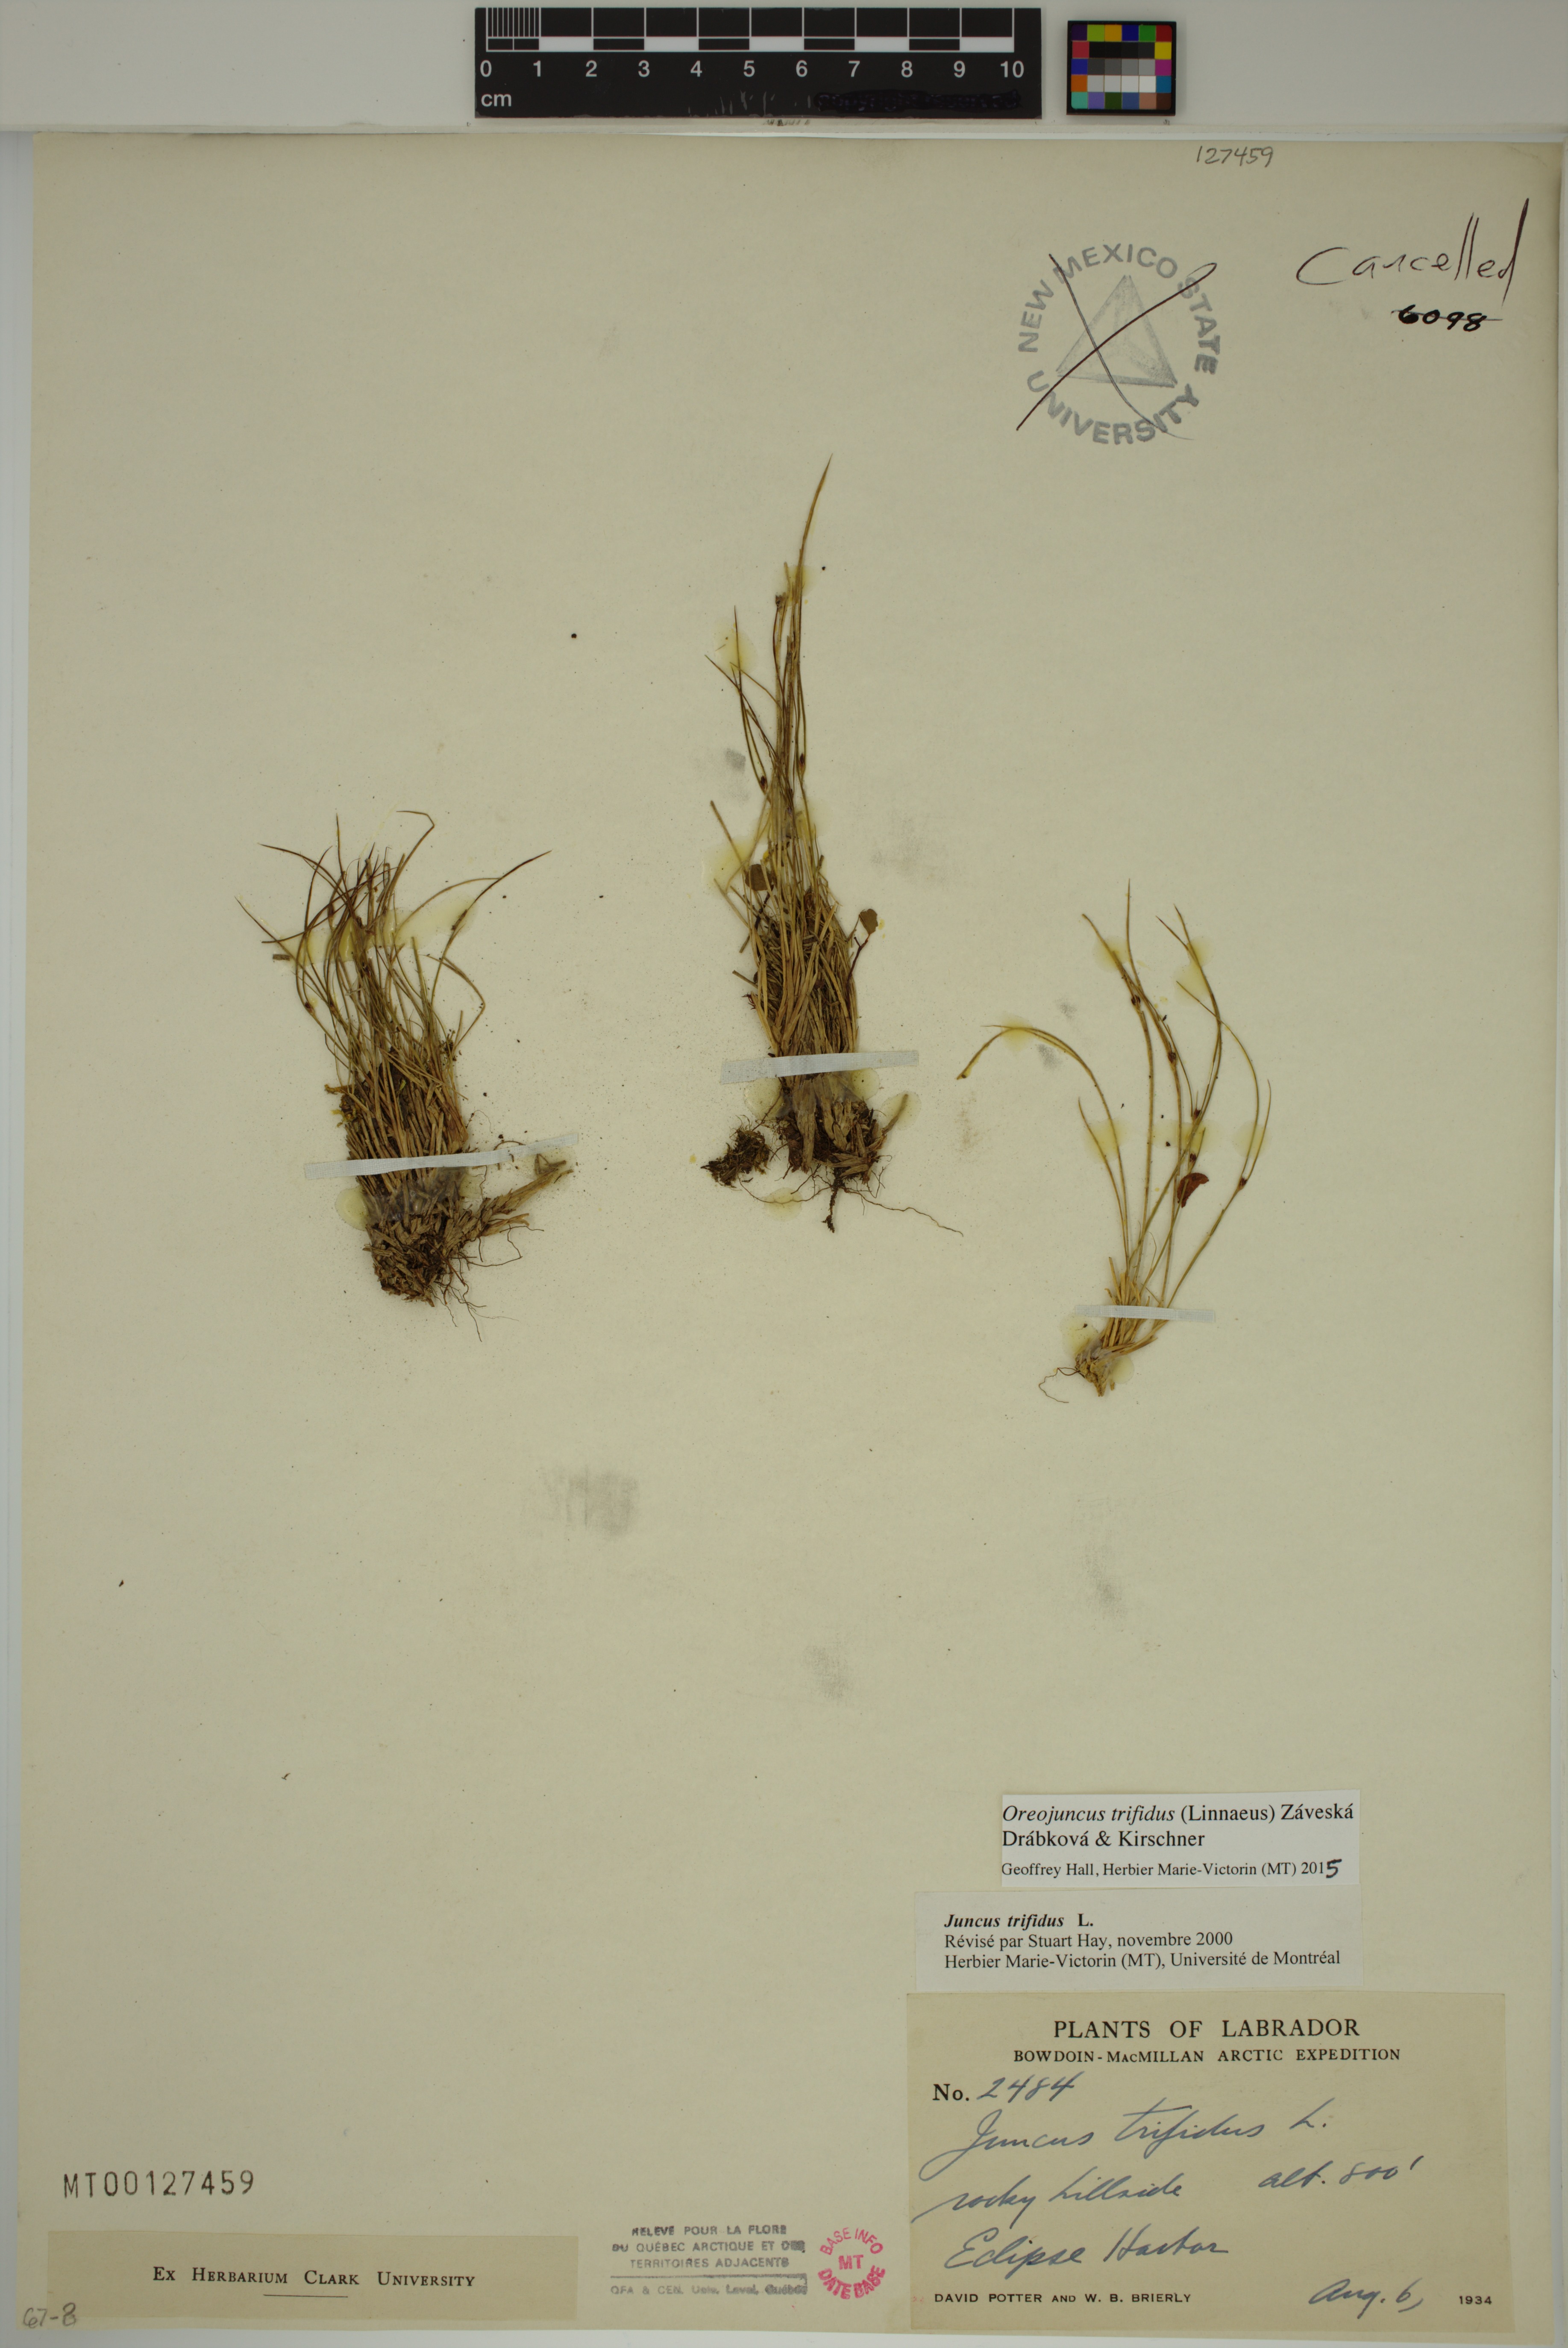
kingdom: Plantae
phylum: Tracheophyta
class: Liliopsida
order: Poales
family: Juncaceae
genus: Oreojuncus
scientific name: Oreojuncus trifidus
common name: Highland rush
